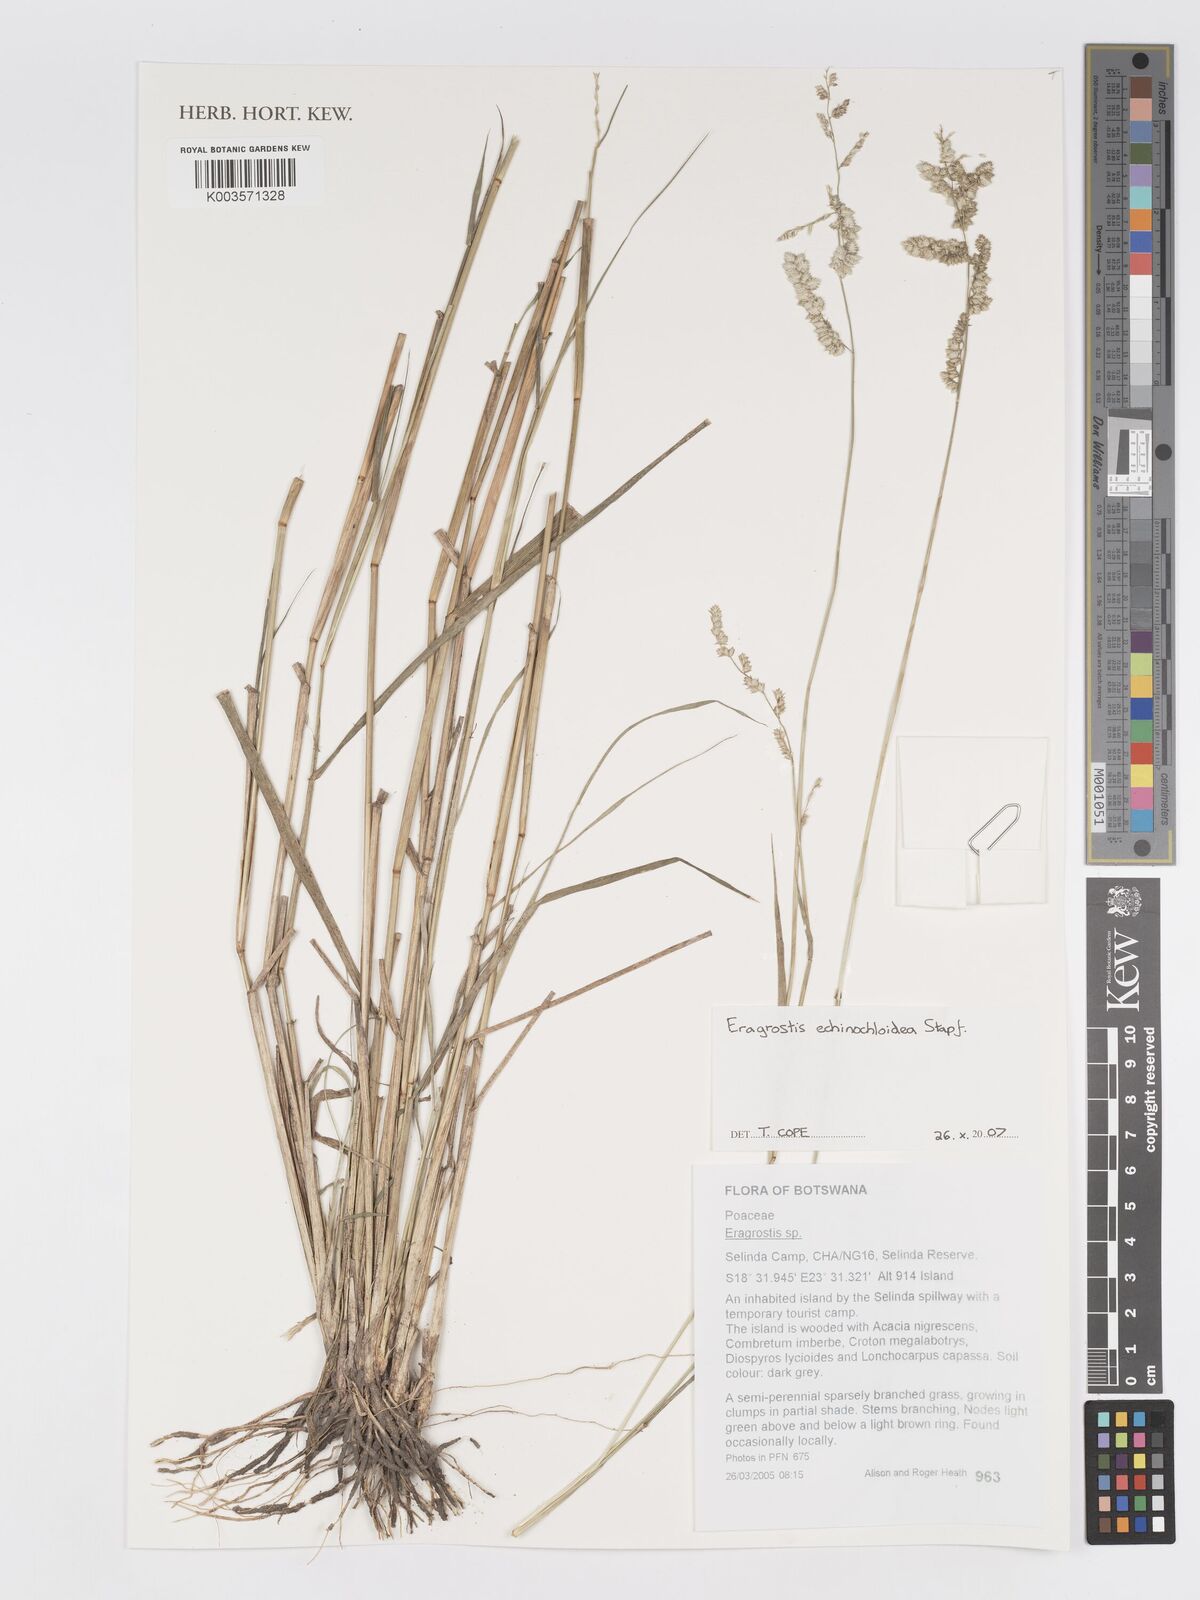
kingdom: Plantae
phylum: Tracheophyta
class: Liliopsida
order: Poales
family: Poaceae
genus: Eragrostis
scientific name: Eragrostis echinochloidea
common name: African lovegrass
